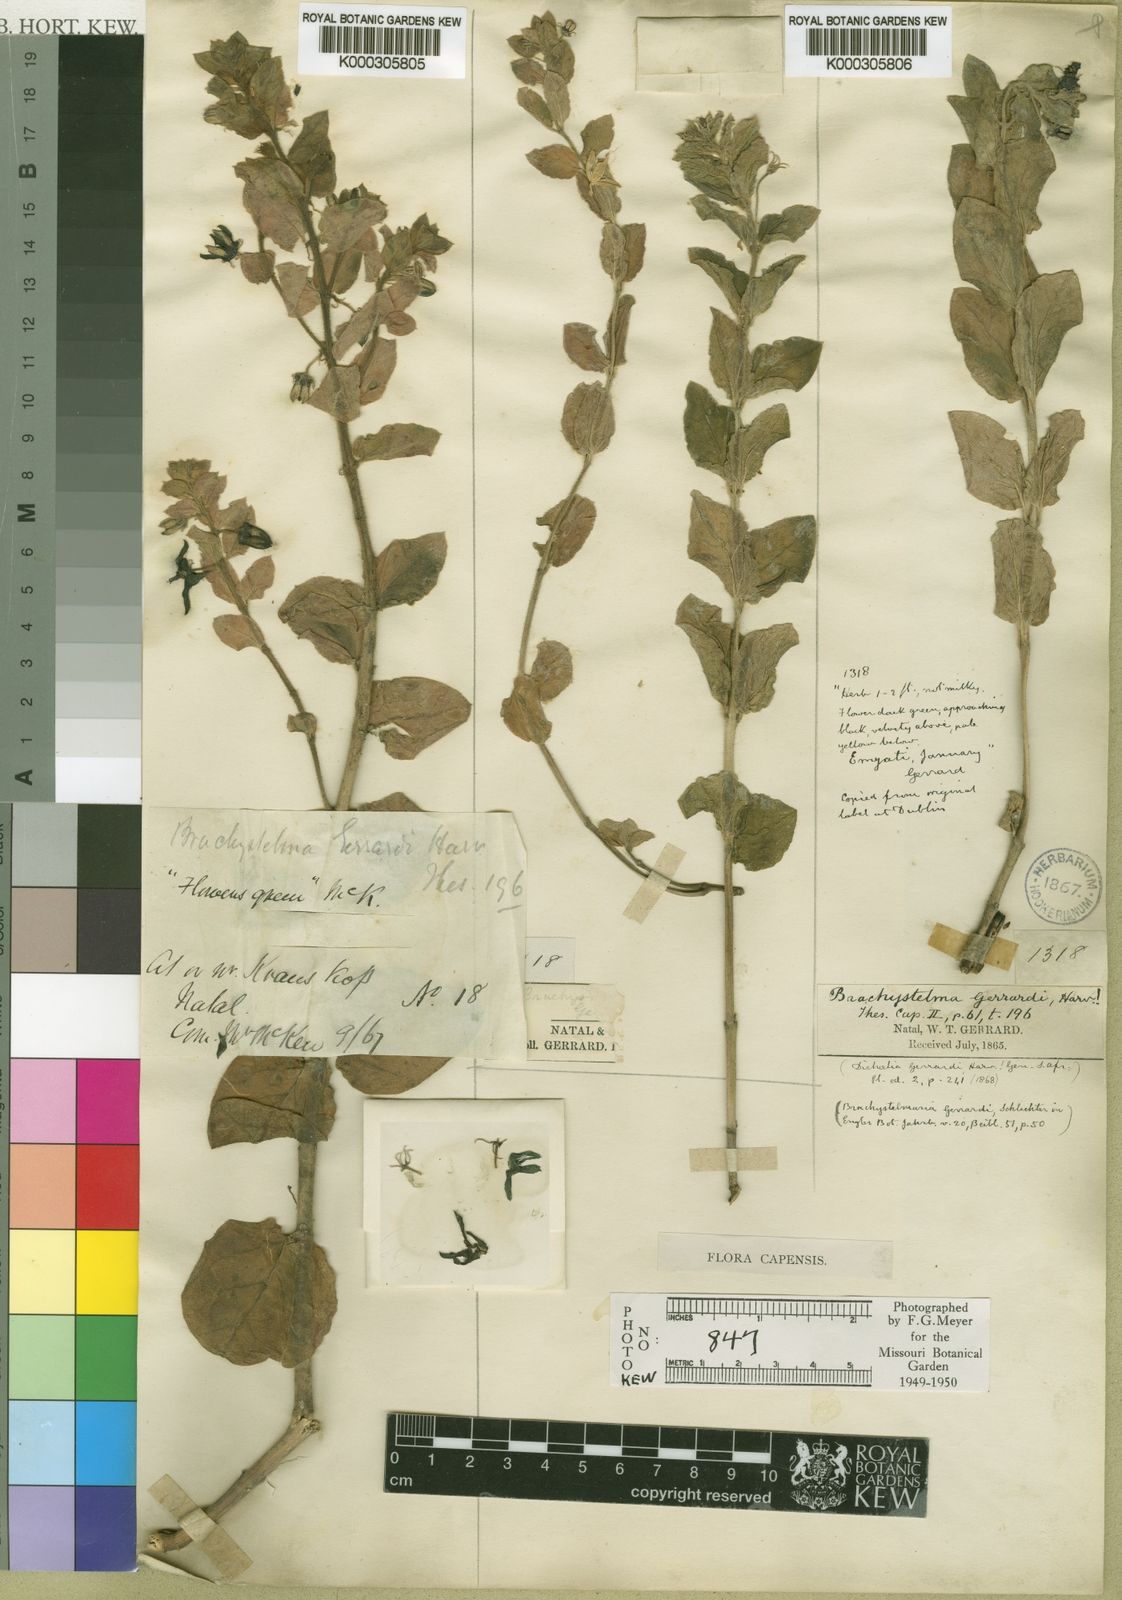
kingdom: Plantae
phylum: Tracheophyta
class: Magnoliopsida
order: Gentianales
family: Apocynaceae
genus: Ceropegia
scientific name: Ceropegia gerrardii
